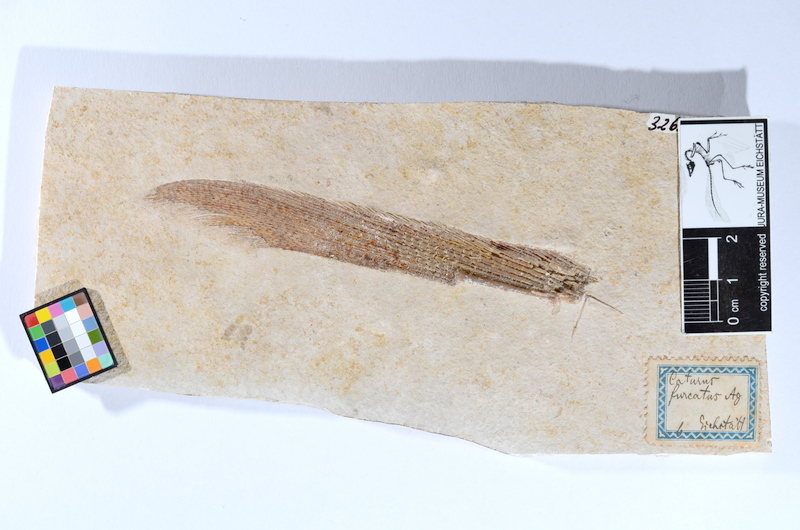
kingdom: Animalia
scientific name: Animalia
